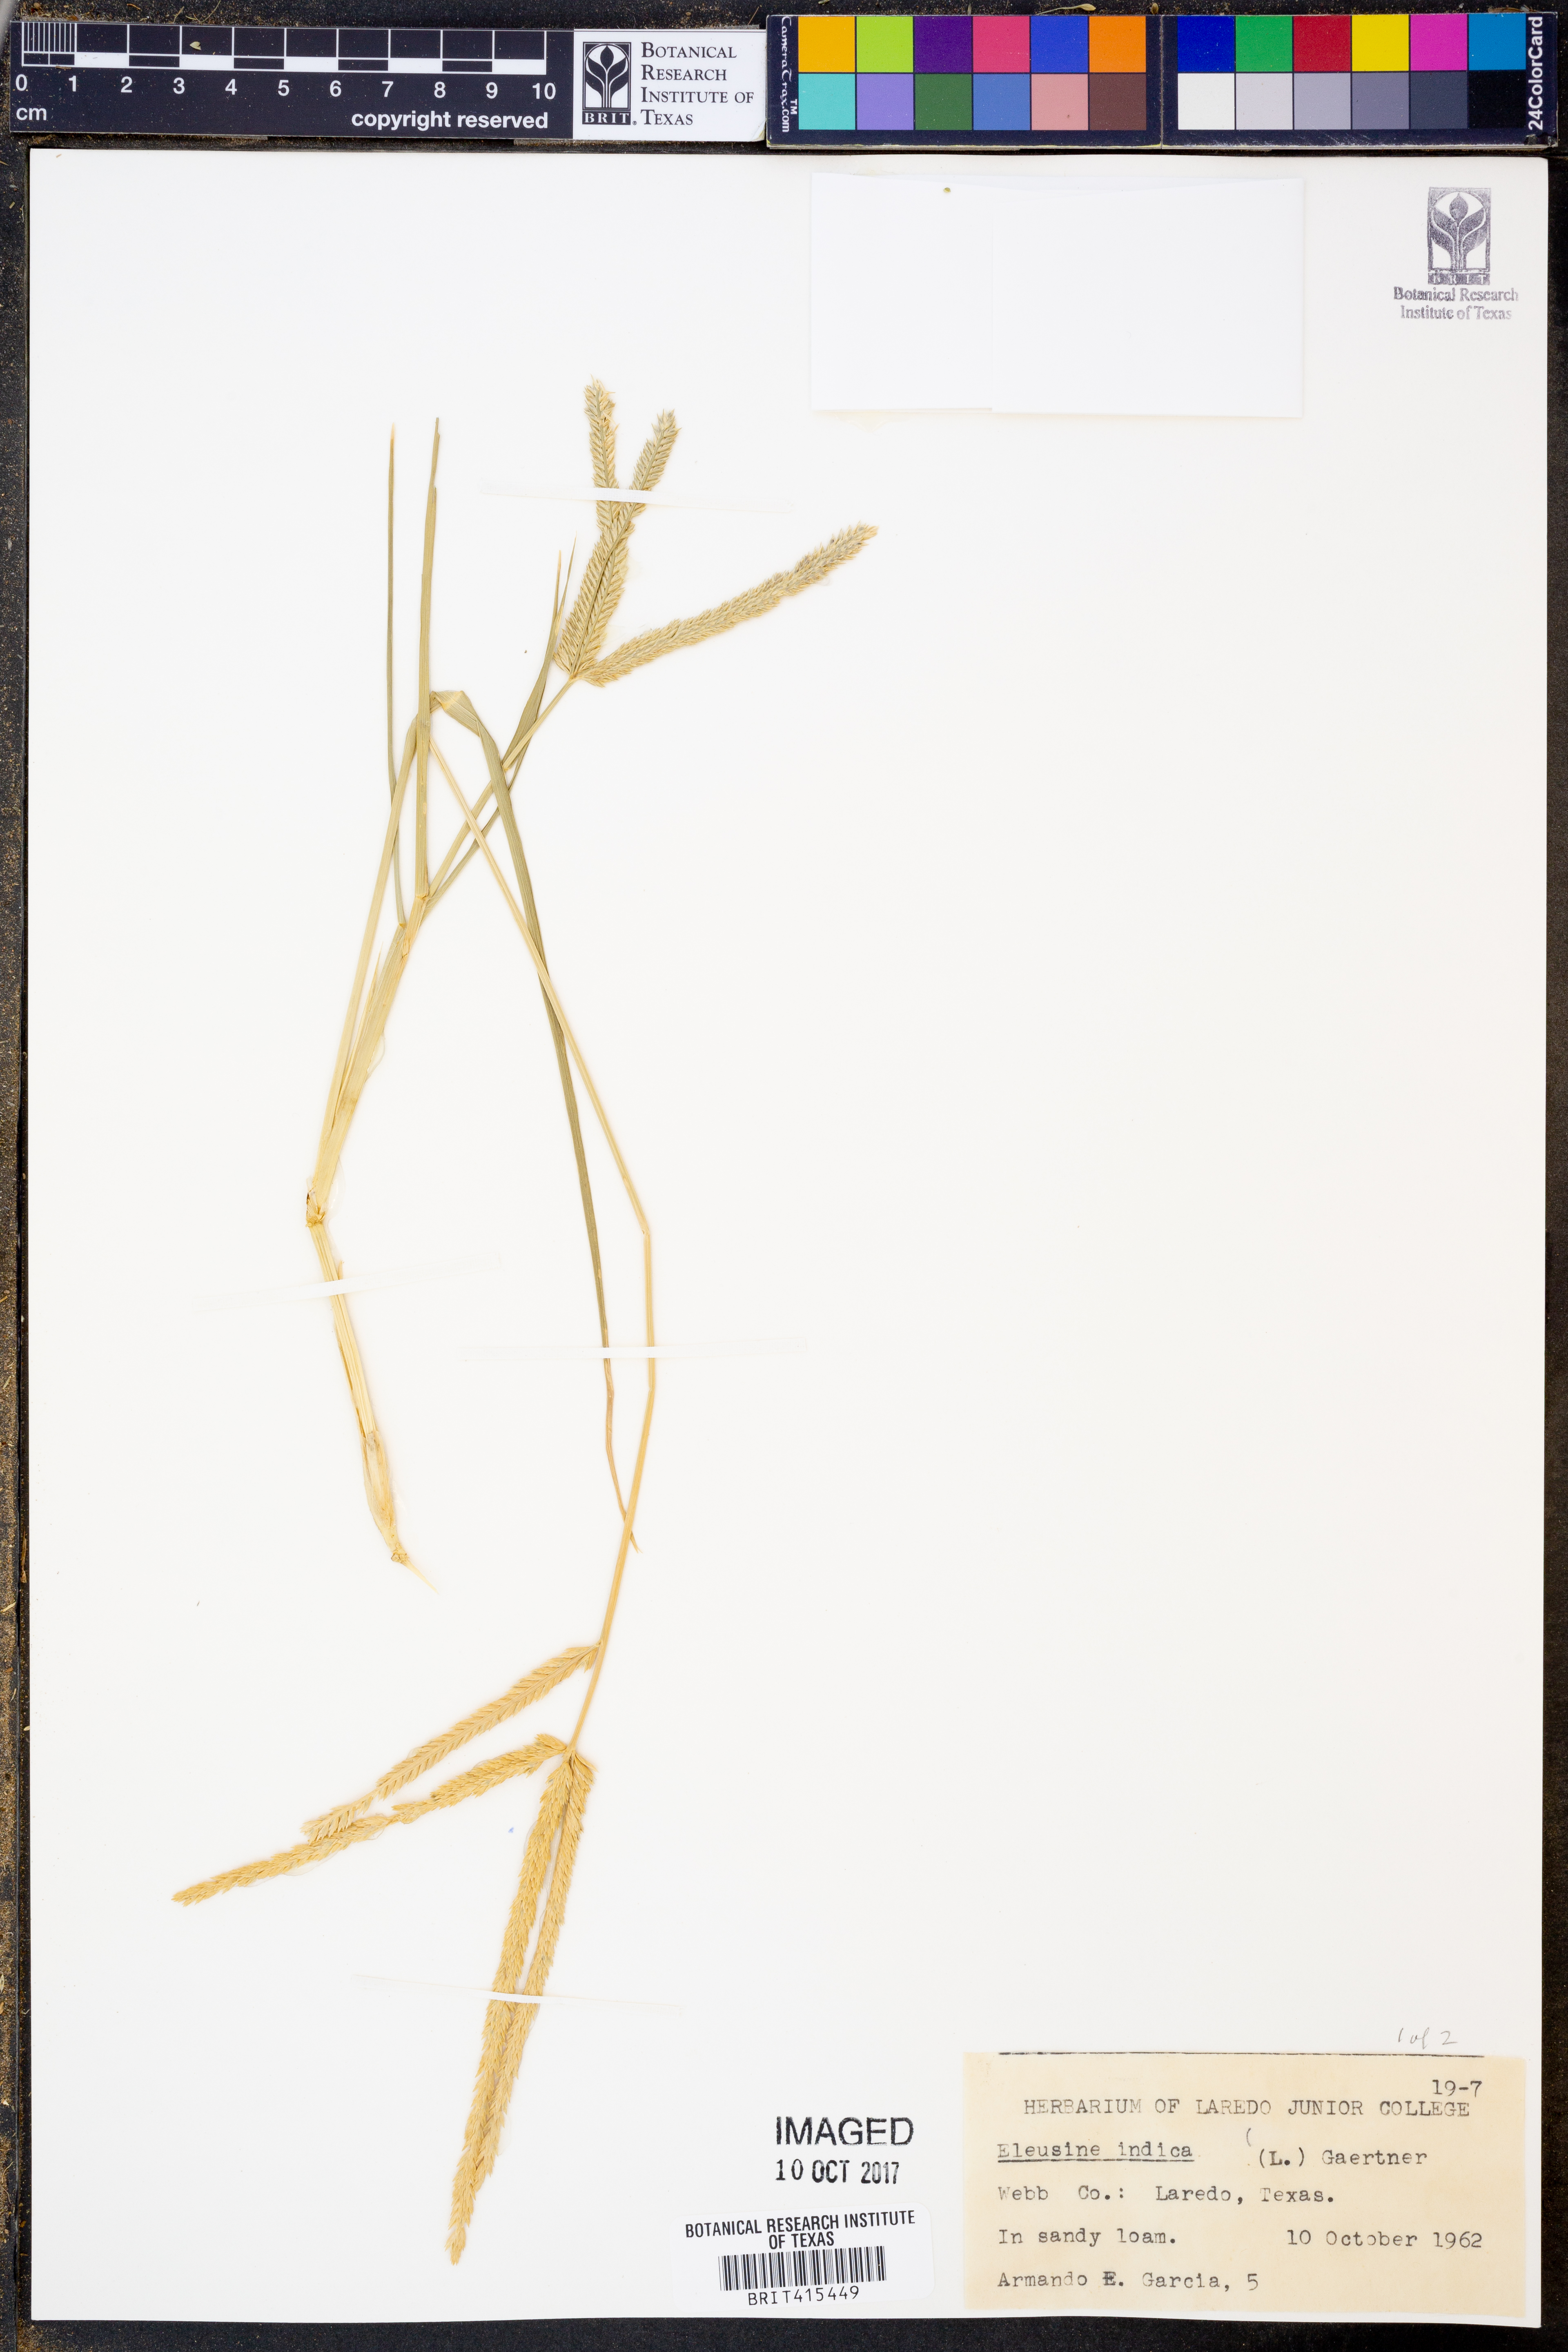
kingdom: Plantae
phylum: Tracheophyta
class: Liliopsida
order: Poales
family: Poaceae
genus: Eleusine
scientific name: Eleusine indica
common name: Yard-grass
